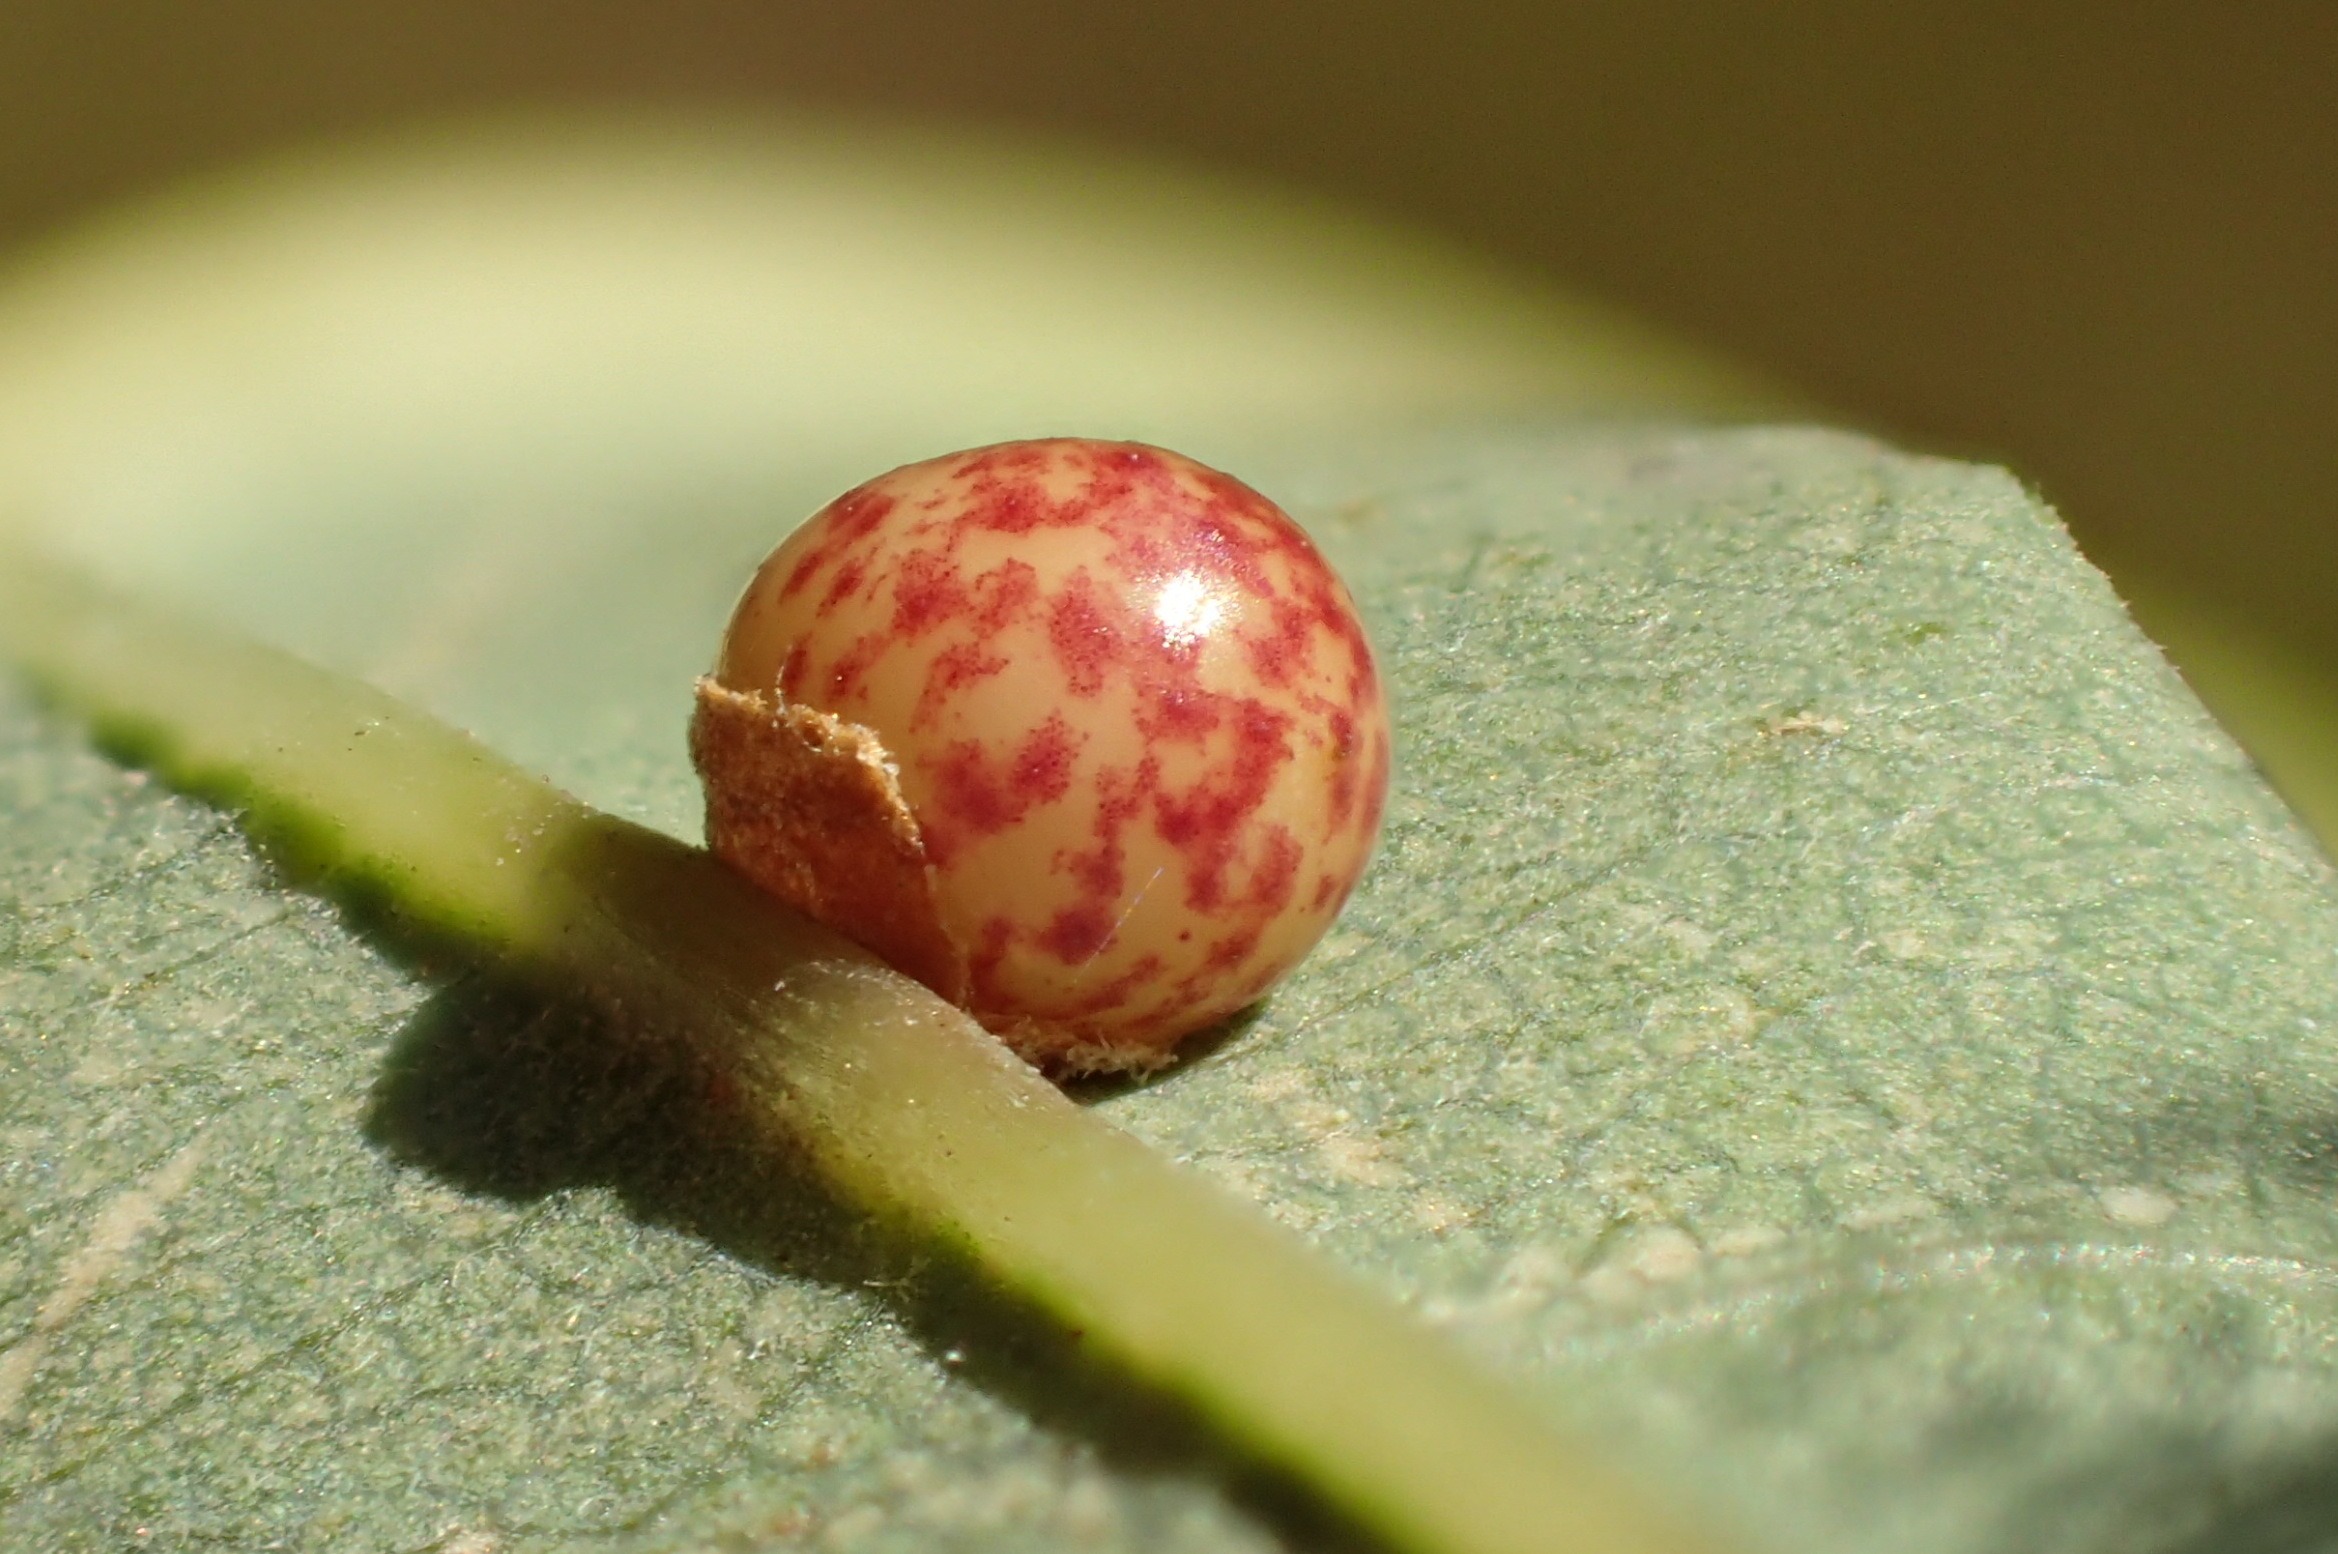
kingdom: Animalia
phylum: Arthropoda
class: Insecta
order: Hymenoptera
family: Cynipidae
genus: Neuroterus
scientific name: Neuroterus anthracinus
